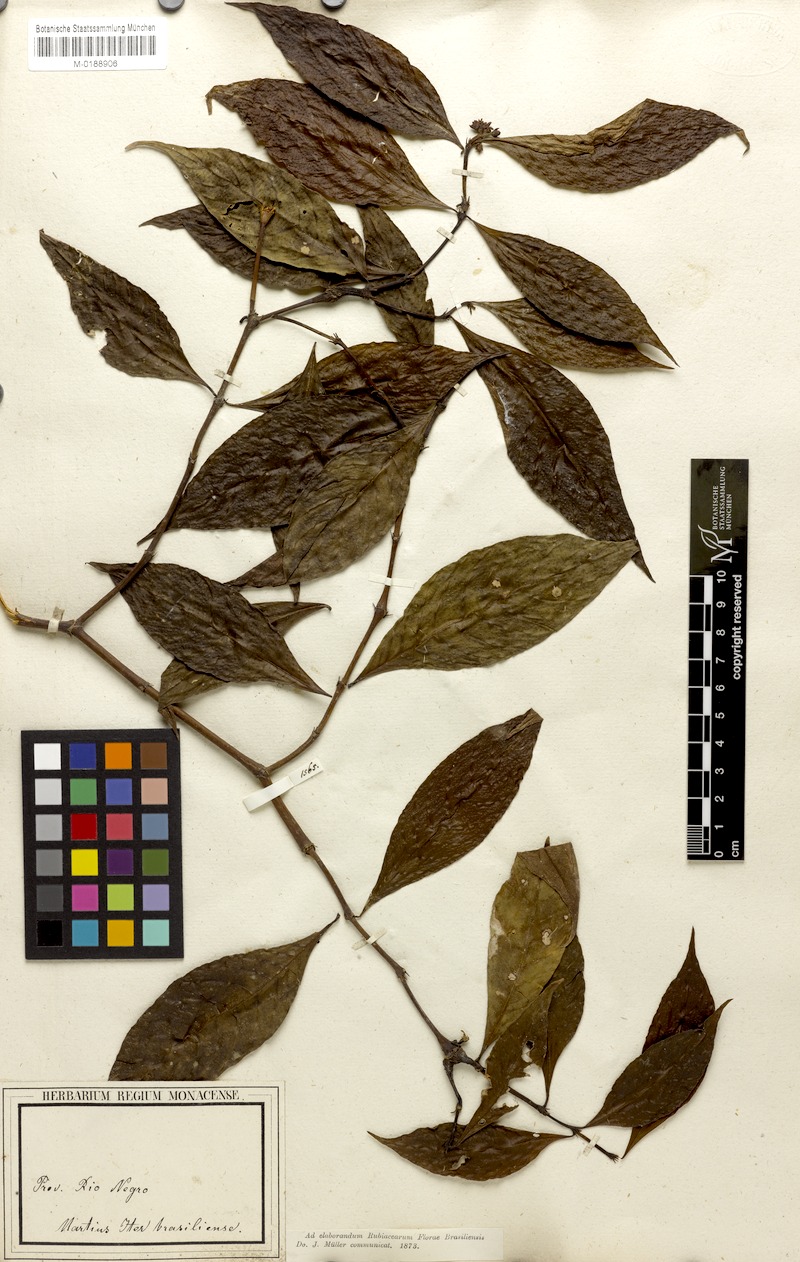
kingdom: Plantae
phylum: Tracheophyta
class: Magnoliopsida
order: Gentianales
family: Rubiaceae
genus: Palicourea
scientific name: Palicourea gracilenta
